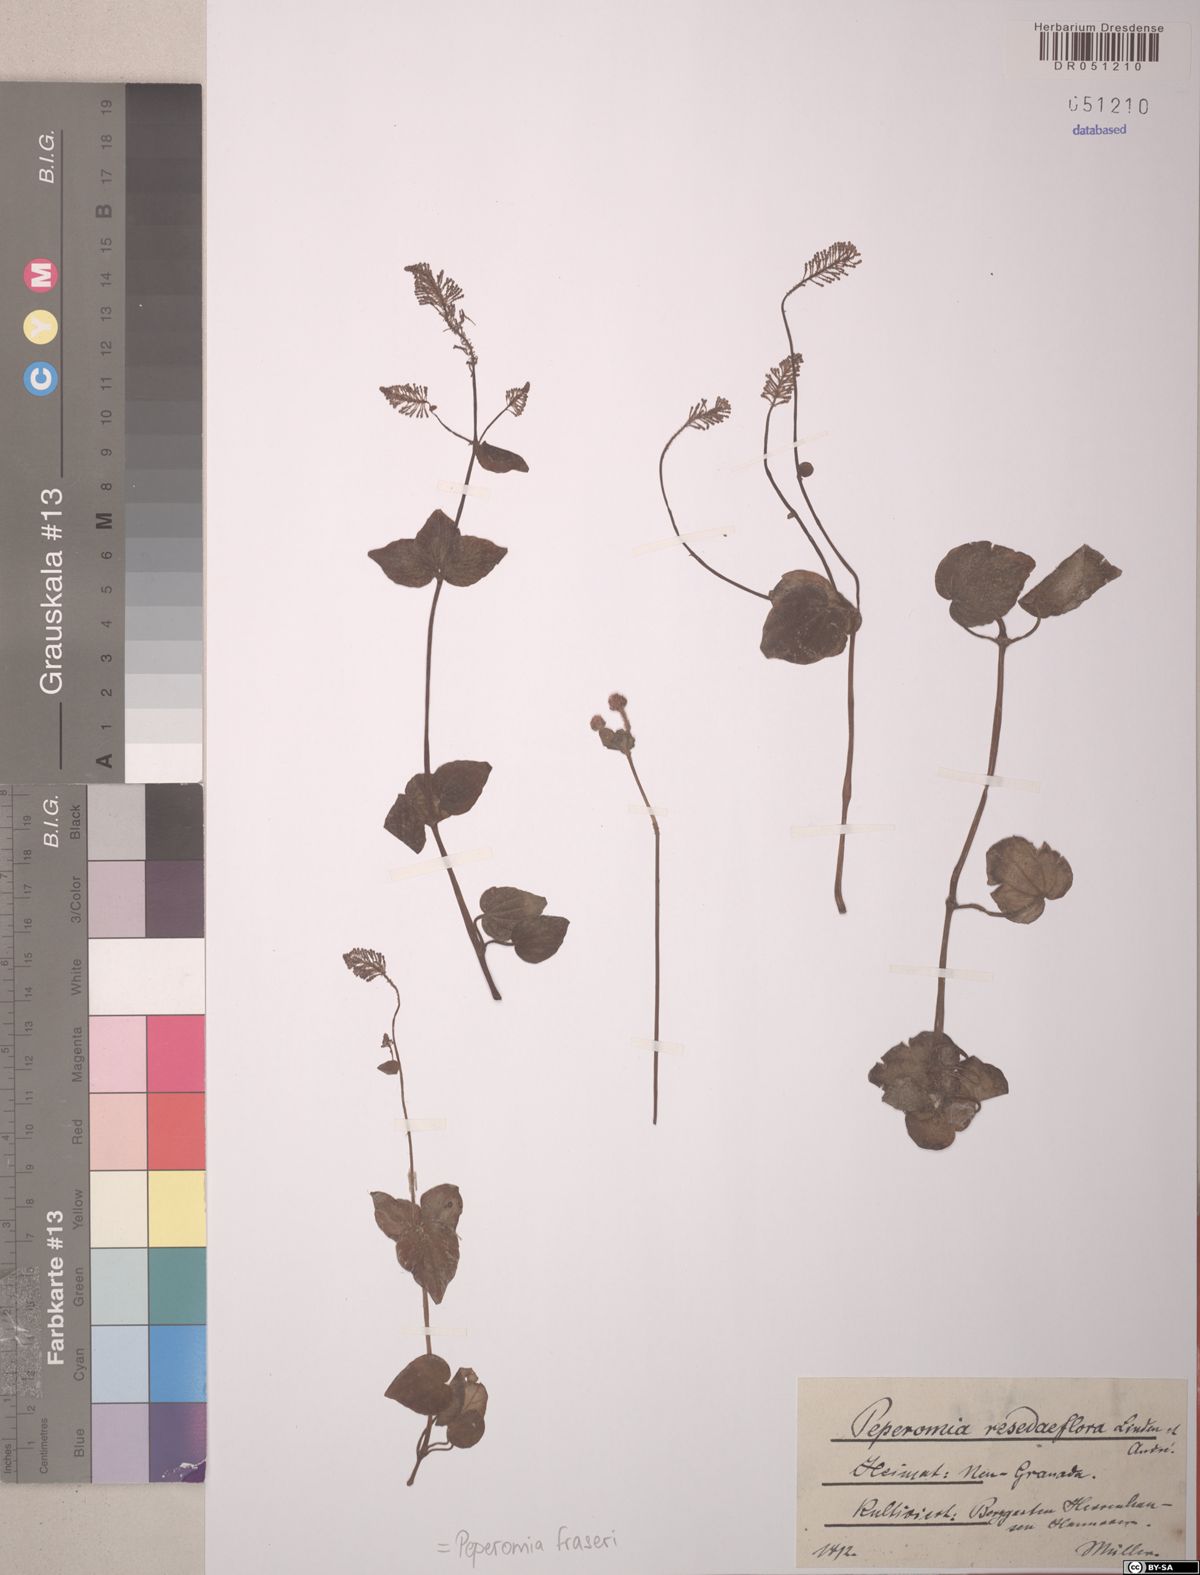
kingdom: Plantae
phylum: Tracheophyta
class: Magnoliopsida
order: Piperales
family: Piperaceae
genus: Peperomia
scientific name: Peperomia fraseri
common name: Mignonette peperomia
